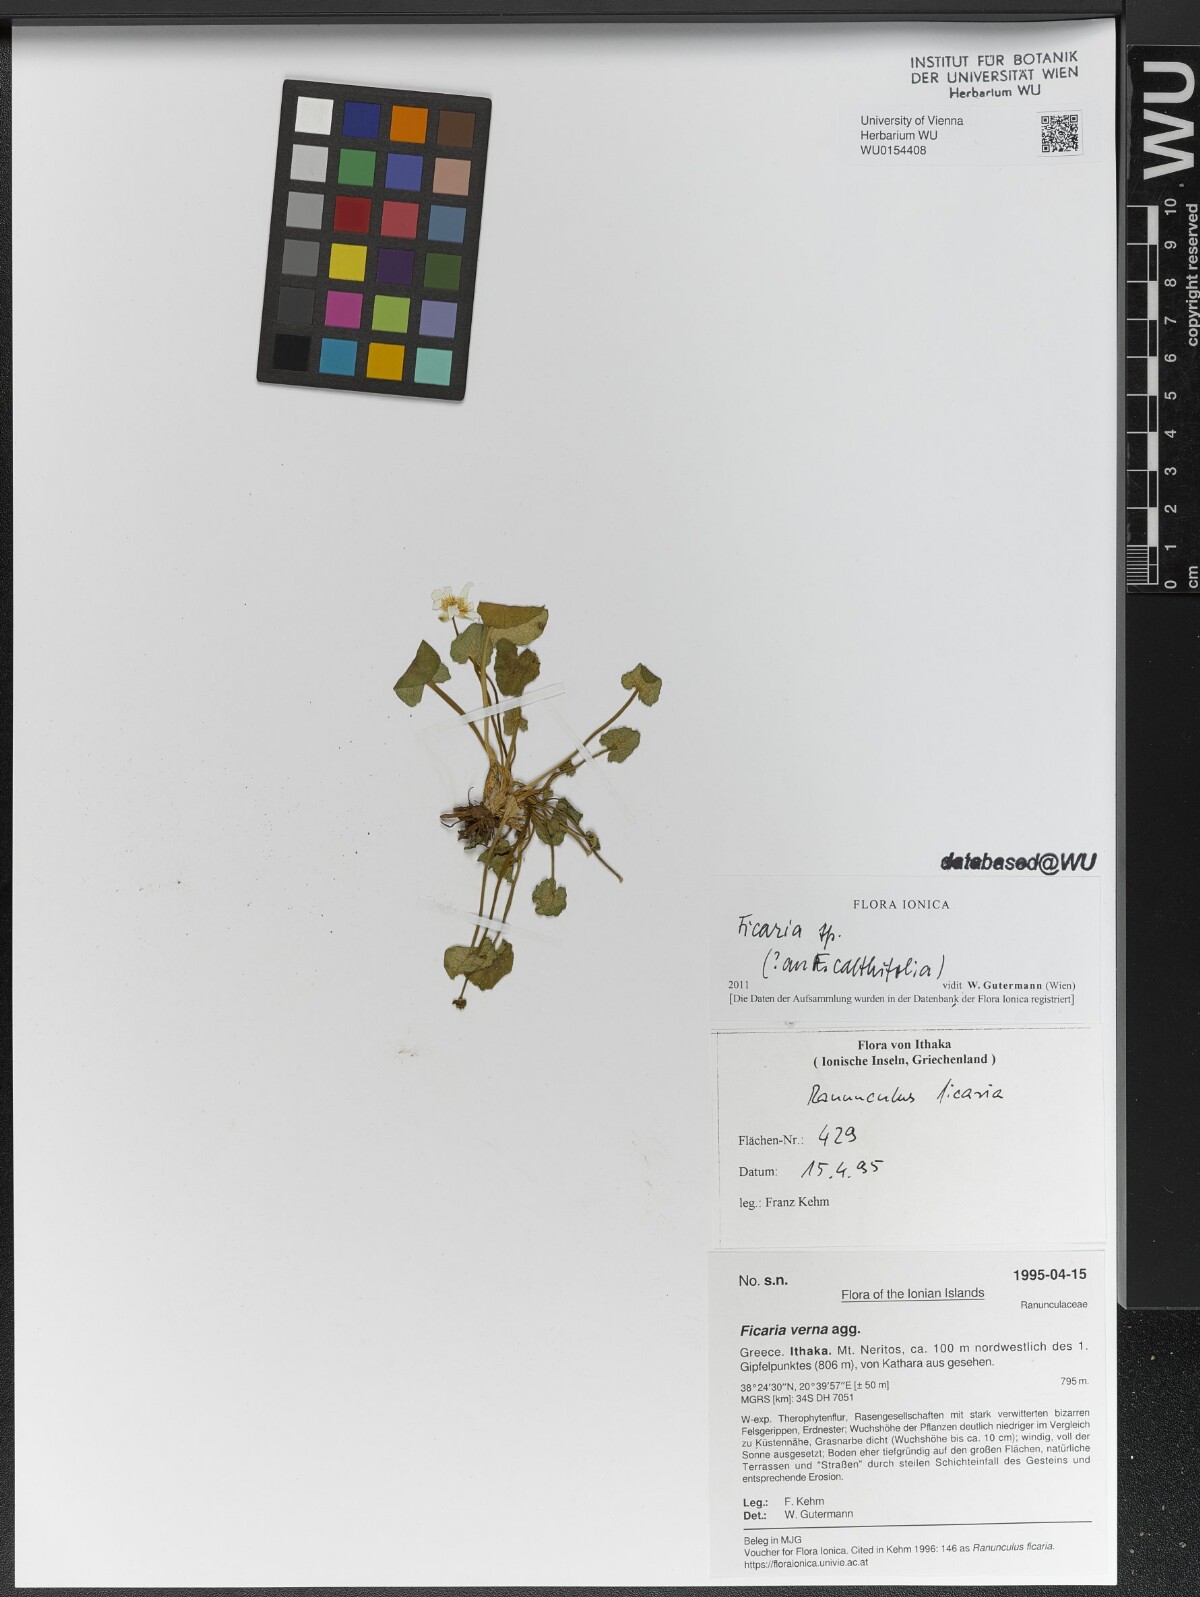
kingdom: Plantae
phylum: Tracheophyta
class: Magnoliopsida
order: Ranunculales
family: Ranunculaceae
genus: Ficaria
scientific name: Ficaria verna
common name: Lesser celandine
